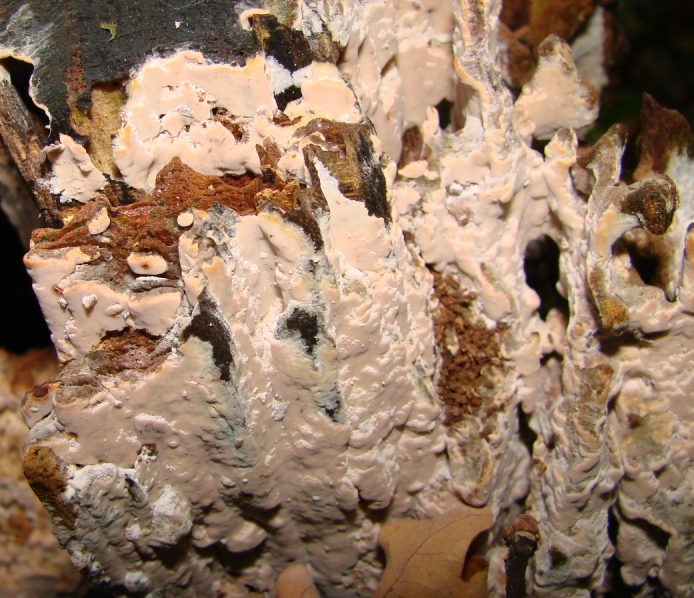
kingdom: Fungi
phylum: Basidiomycota
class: Agaricomycetes
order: Russulales
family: Peniophoraceae
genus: Gloiothele
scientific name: Gloiothele lactescens
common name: bitter olieskind
